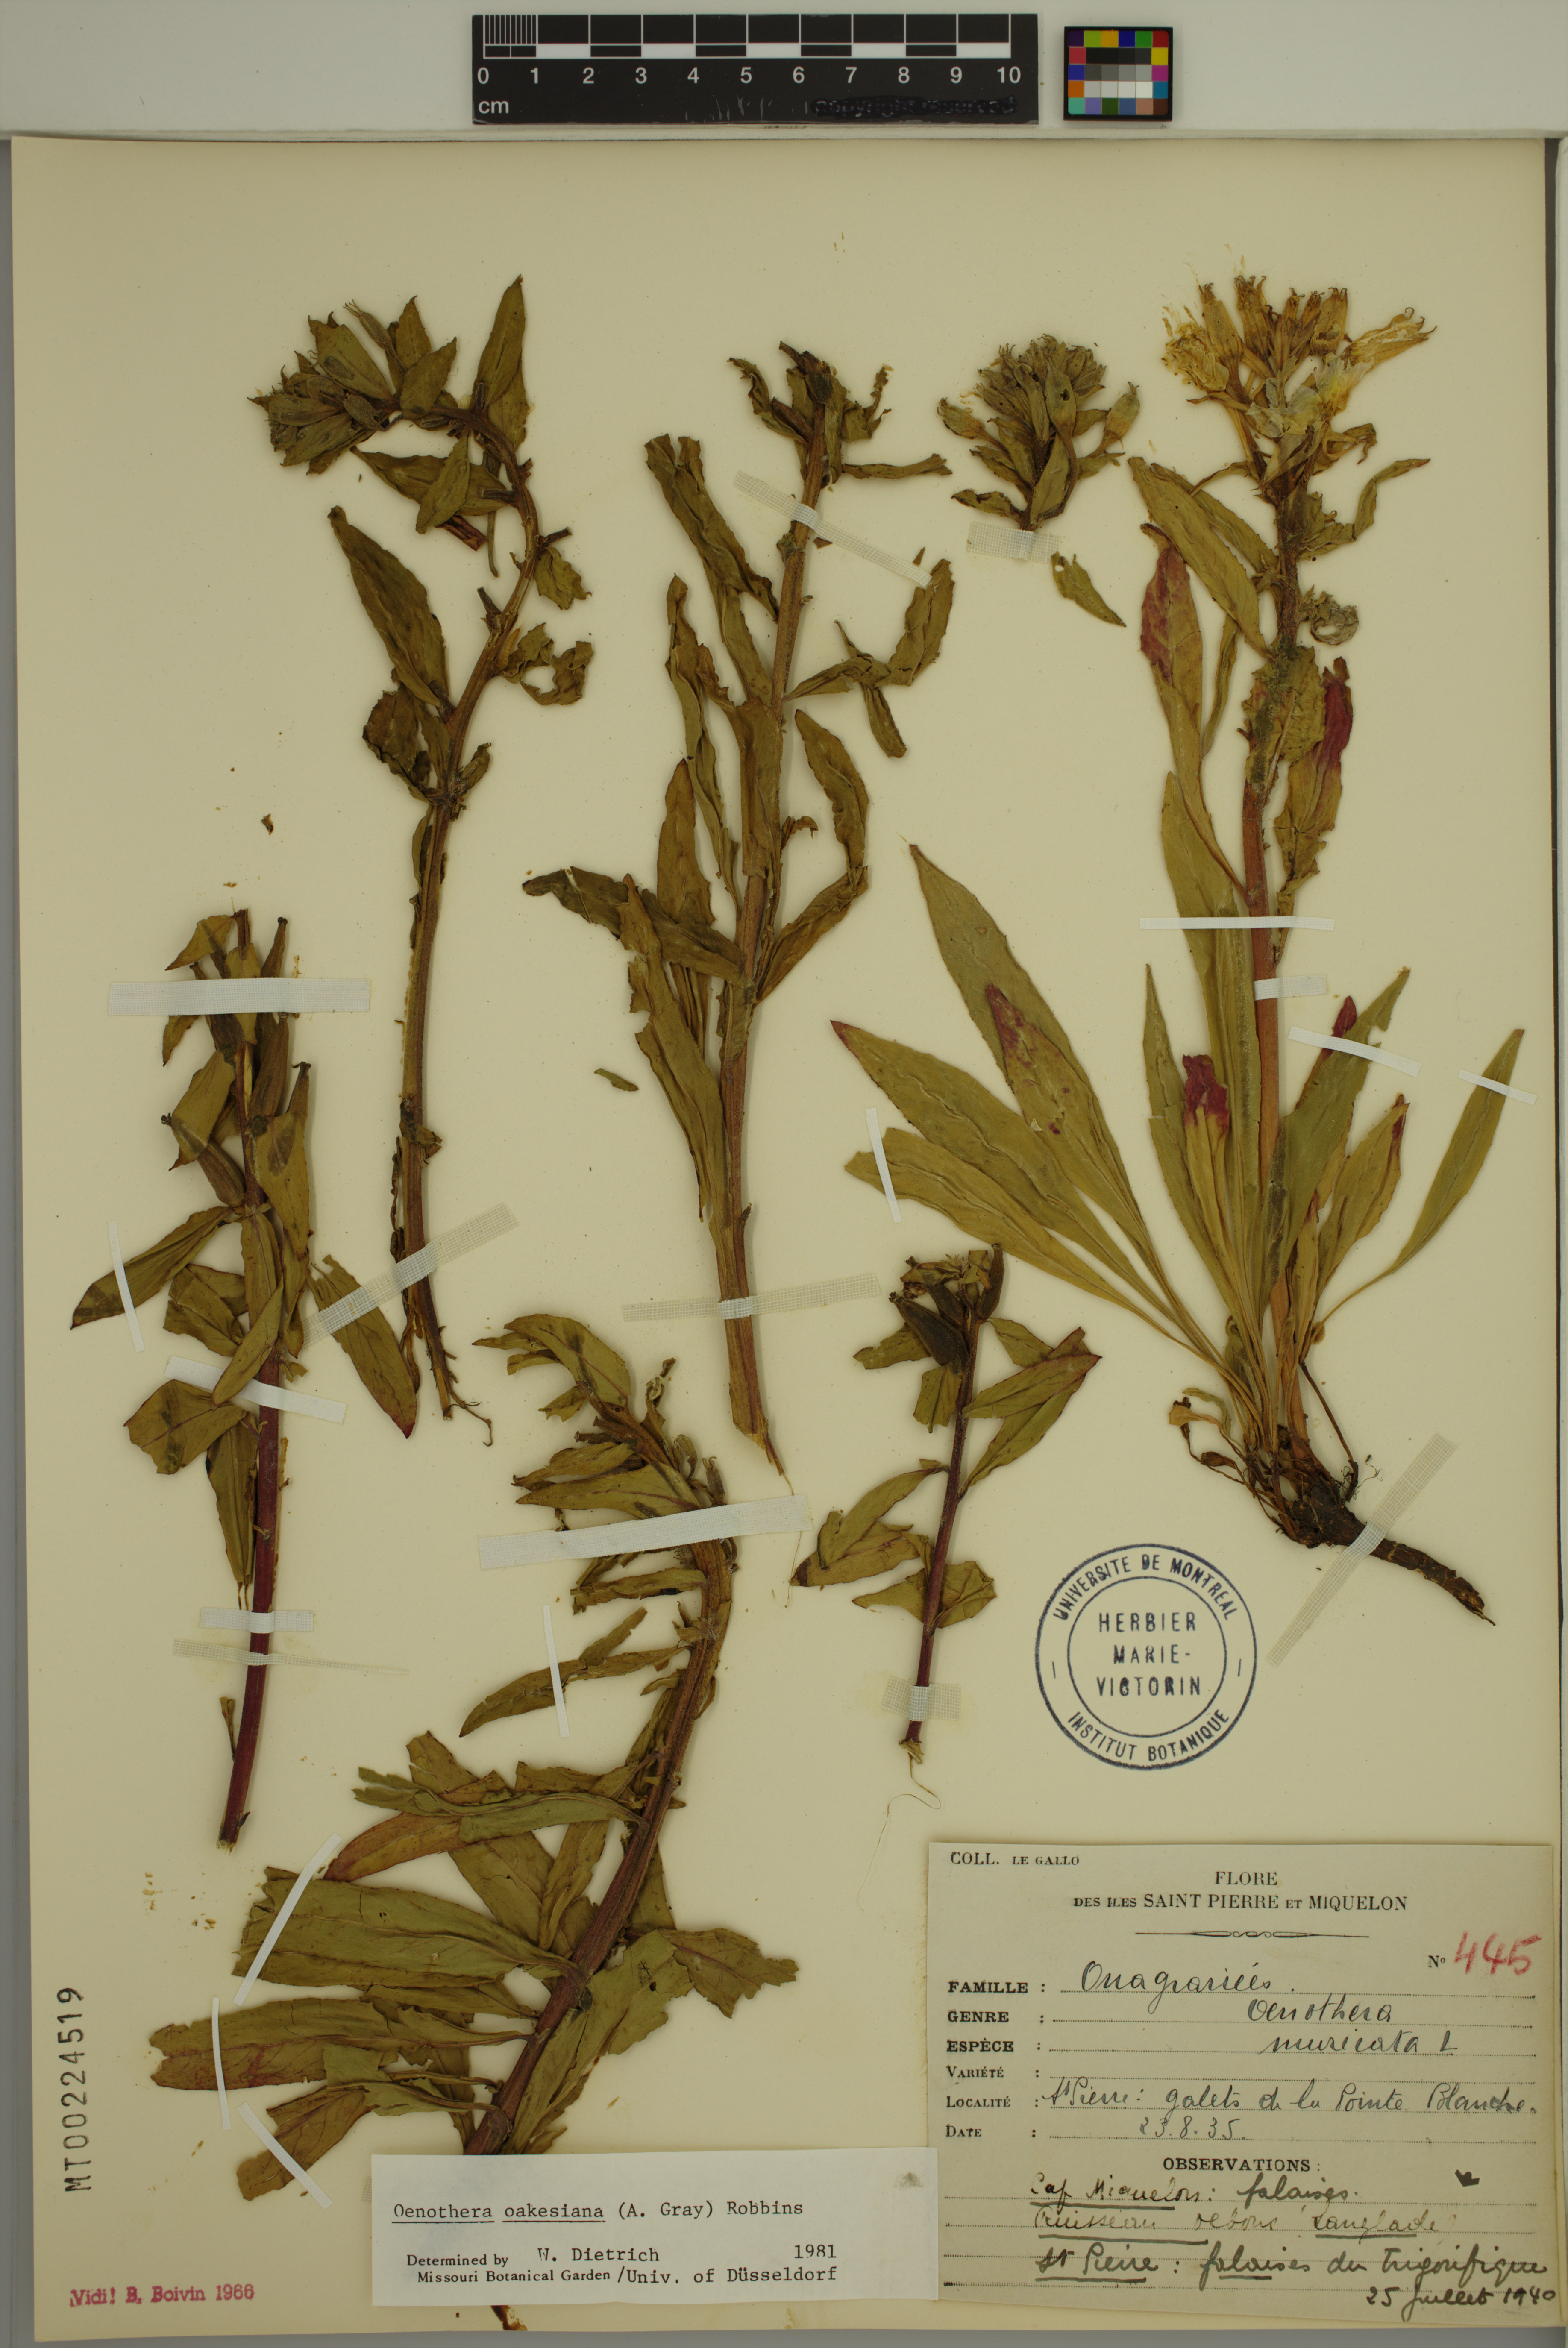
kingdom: Plantae
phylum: Tracheophyta
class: Magnoliopsida
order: Myrtales
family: Onagraceae
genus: Oenothera
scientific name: Oenothera oakesiana
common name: Oakes' evening-primrose
